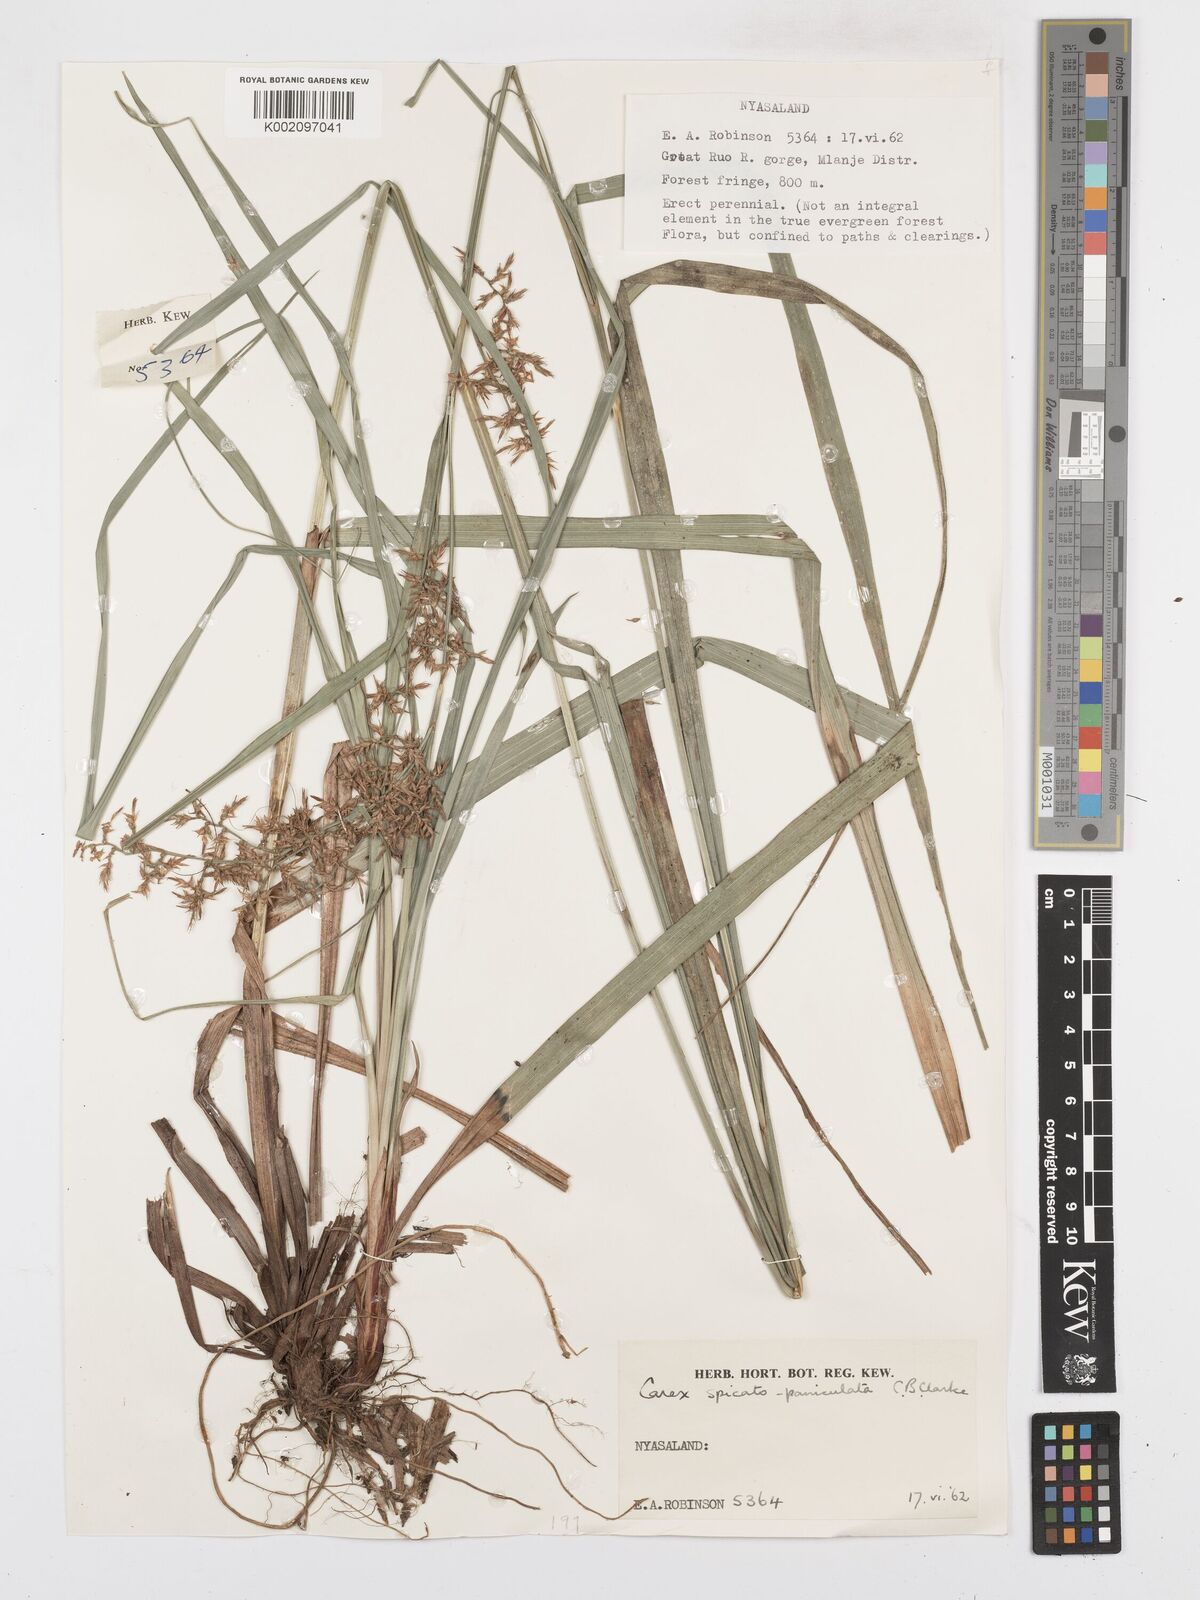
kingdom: Plantae
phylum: Tracheophyta
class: Liliopsida
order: Poales
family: Cyperaceae
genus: Carex
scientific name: Carex spicatopaniculata
